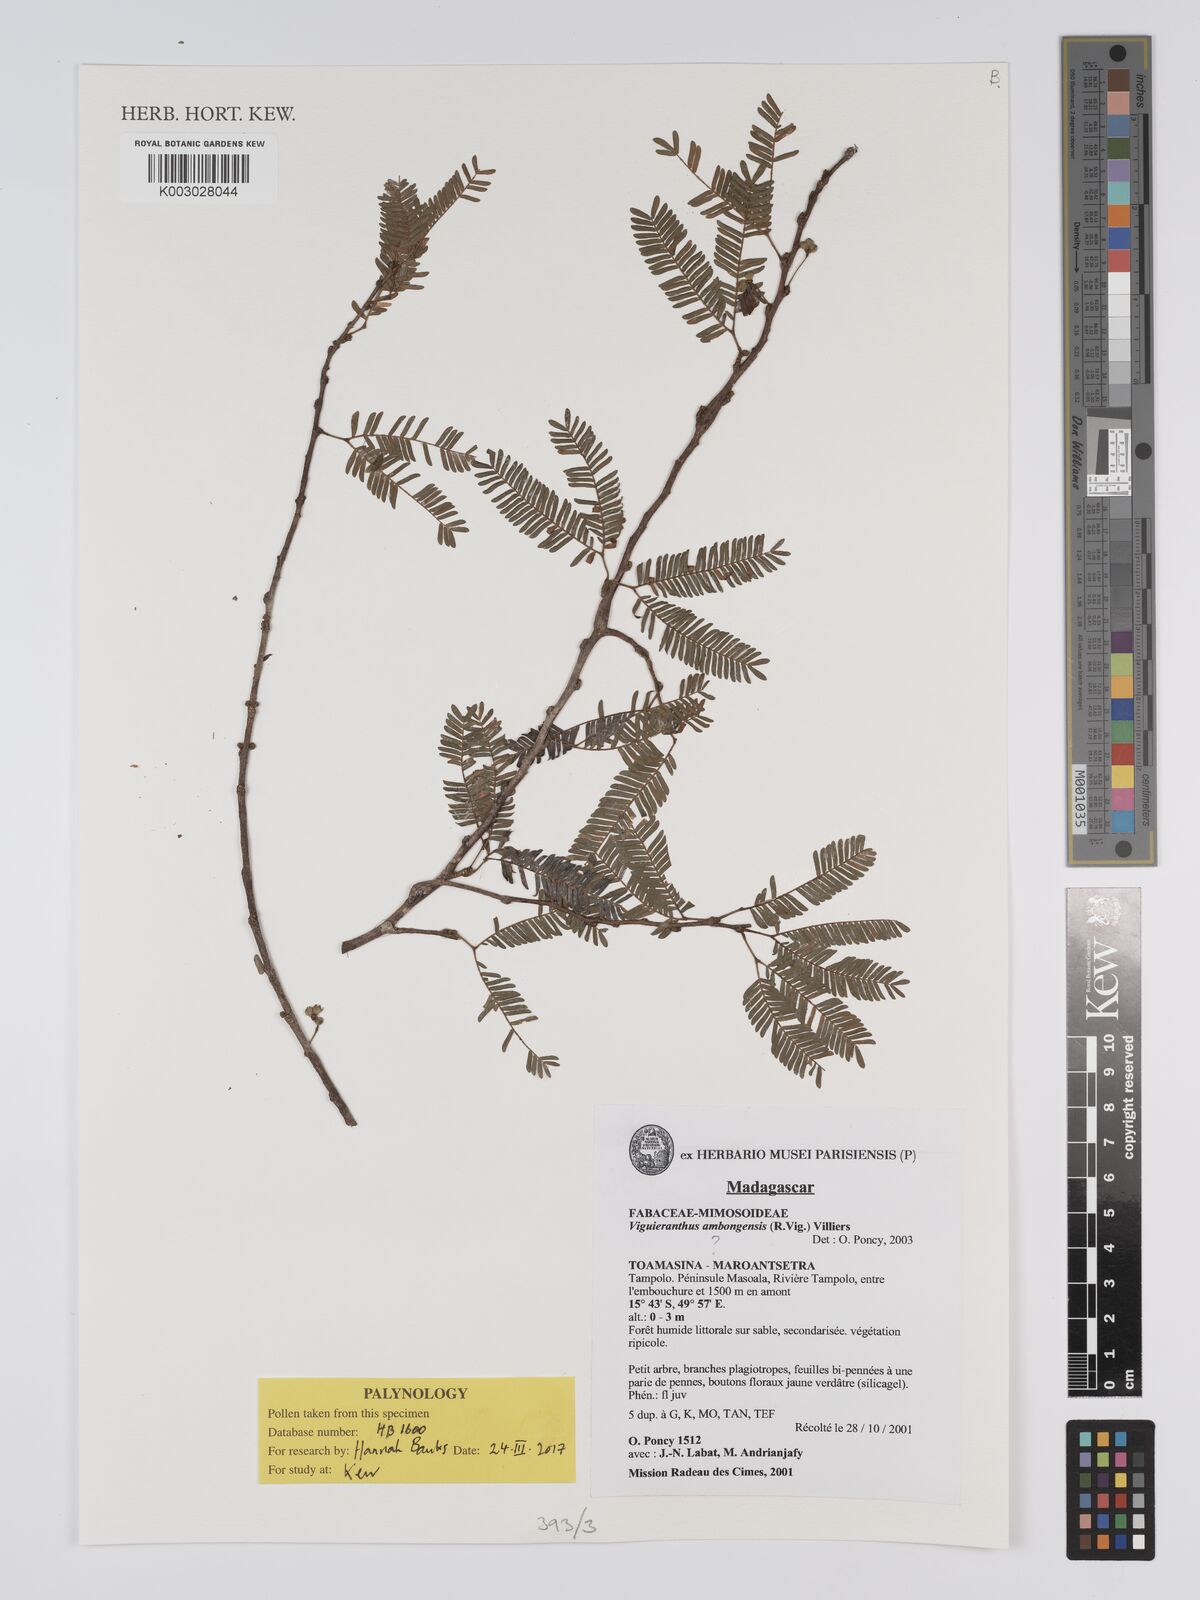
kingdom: Plantae
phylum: Tracheophyta
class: Magnoliopsida
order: Fabales
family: Fabaceae
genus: Viguieranthus
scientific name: Viguieranthus ambongensis
